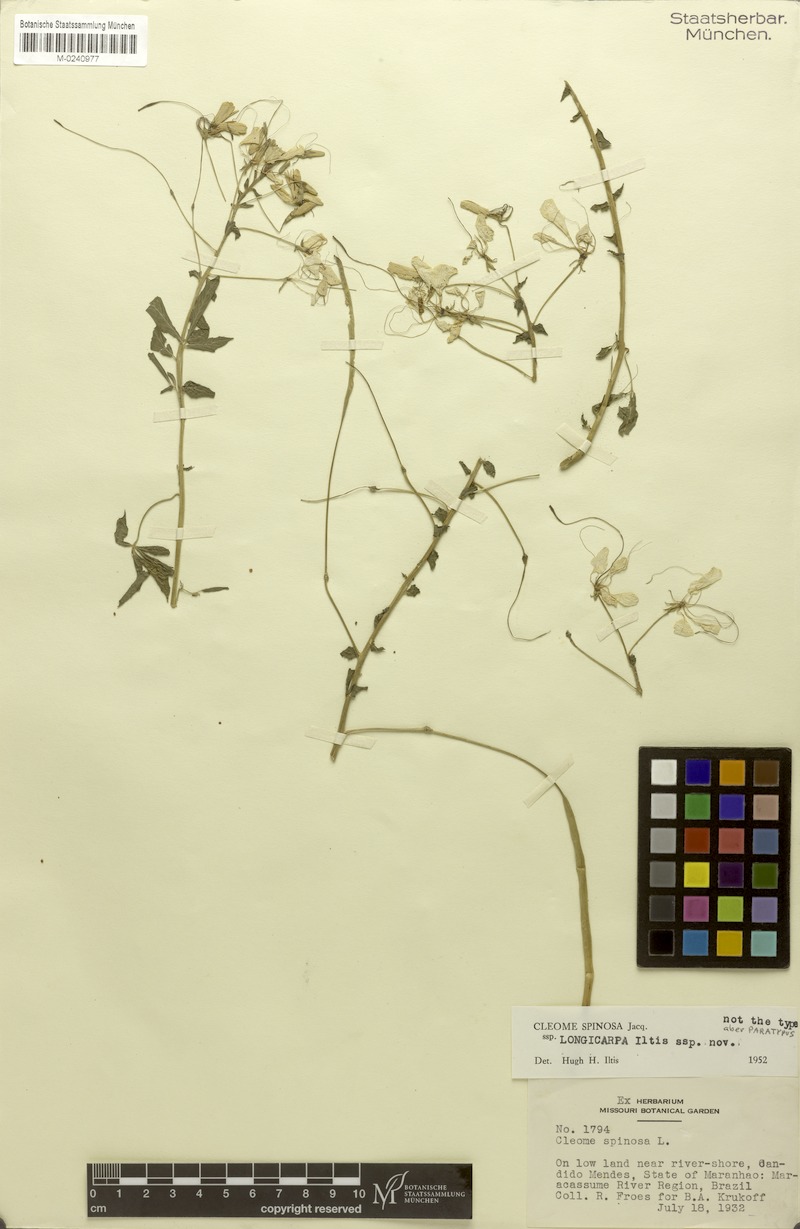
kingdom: Plantae
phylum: Tracheophyta
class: Magnoliopsida
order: Brassicales
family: Cleomaceae
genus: Tarenaya
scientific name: Tarenaya
